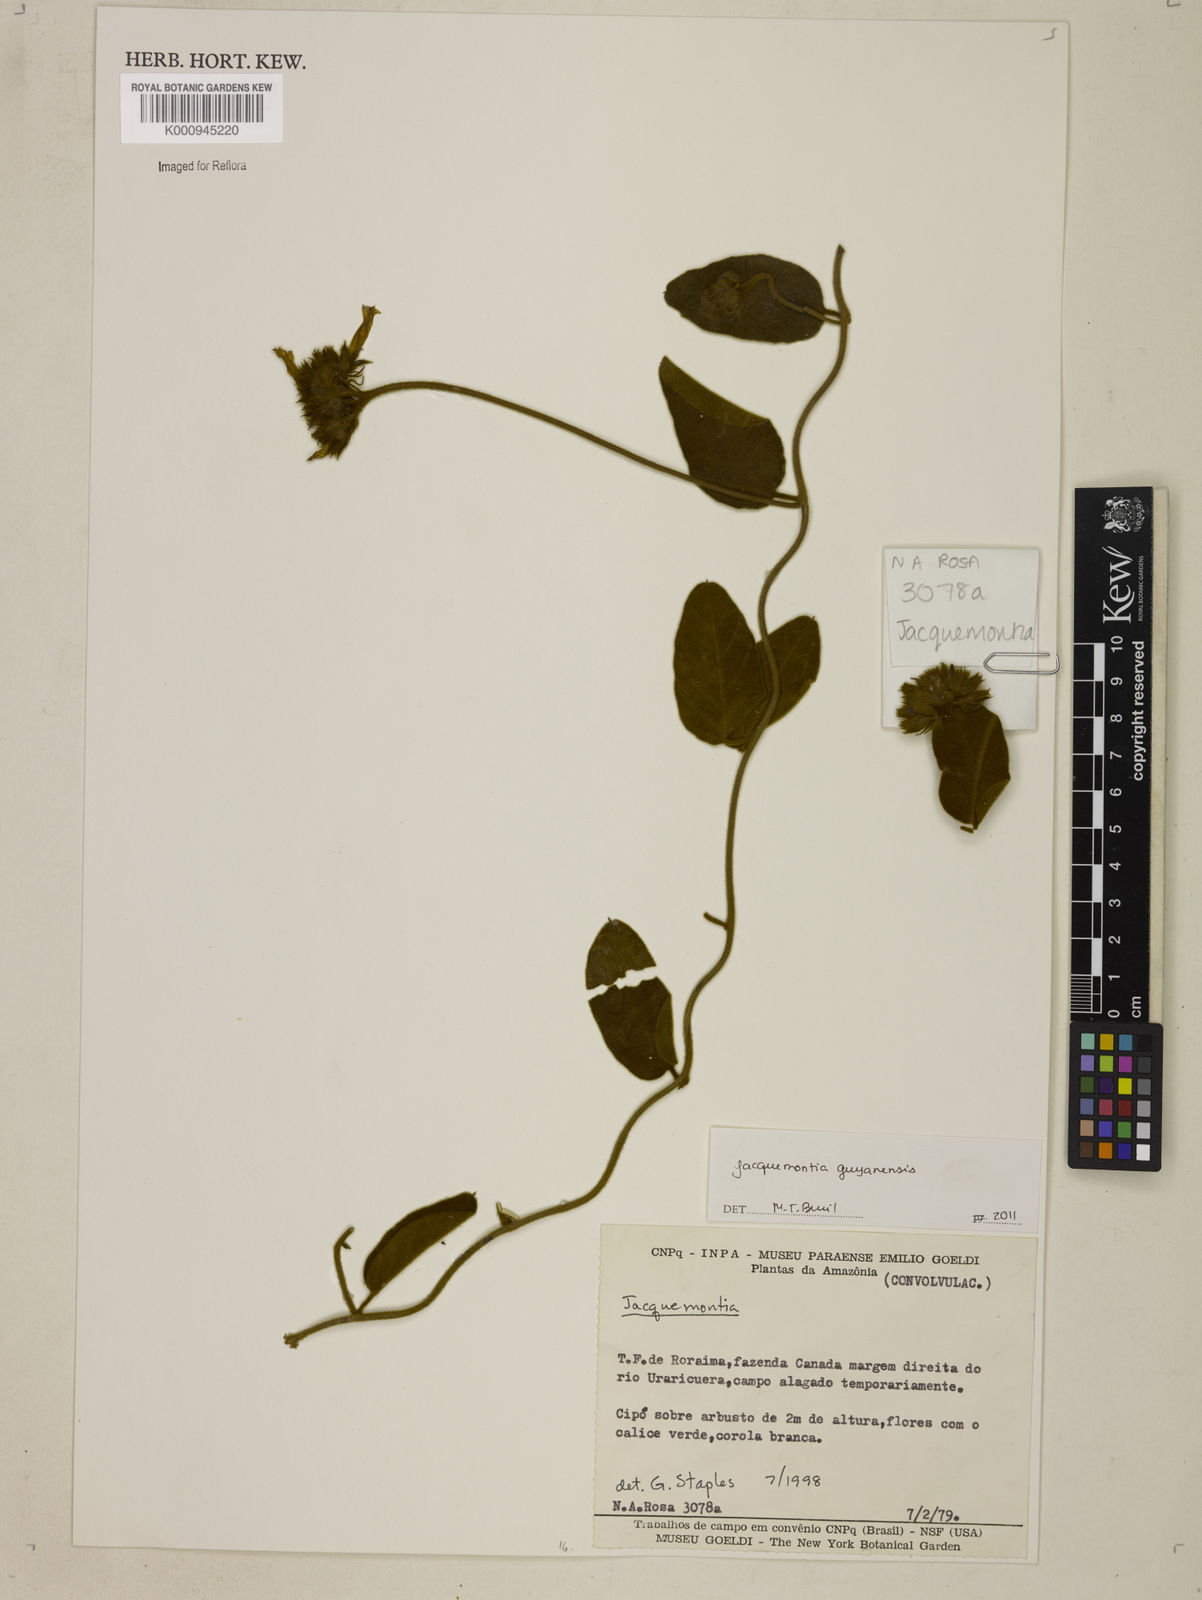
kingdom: Plantae
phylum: Tracheophyta
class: Magnoliopsida
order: Solanales
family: Convolvulaceae
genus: Jacquemontia
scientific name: Jacquemontia guyanensis
